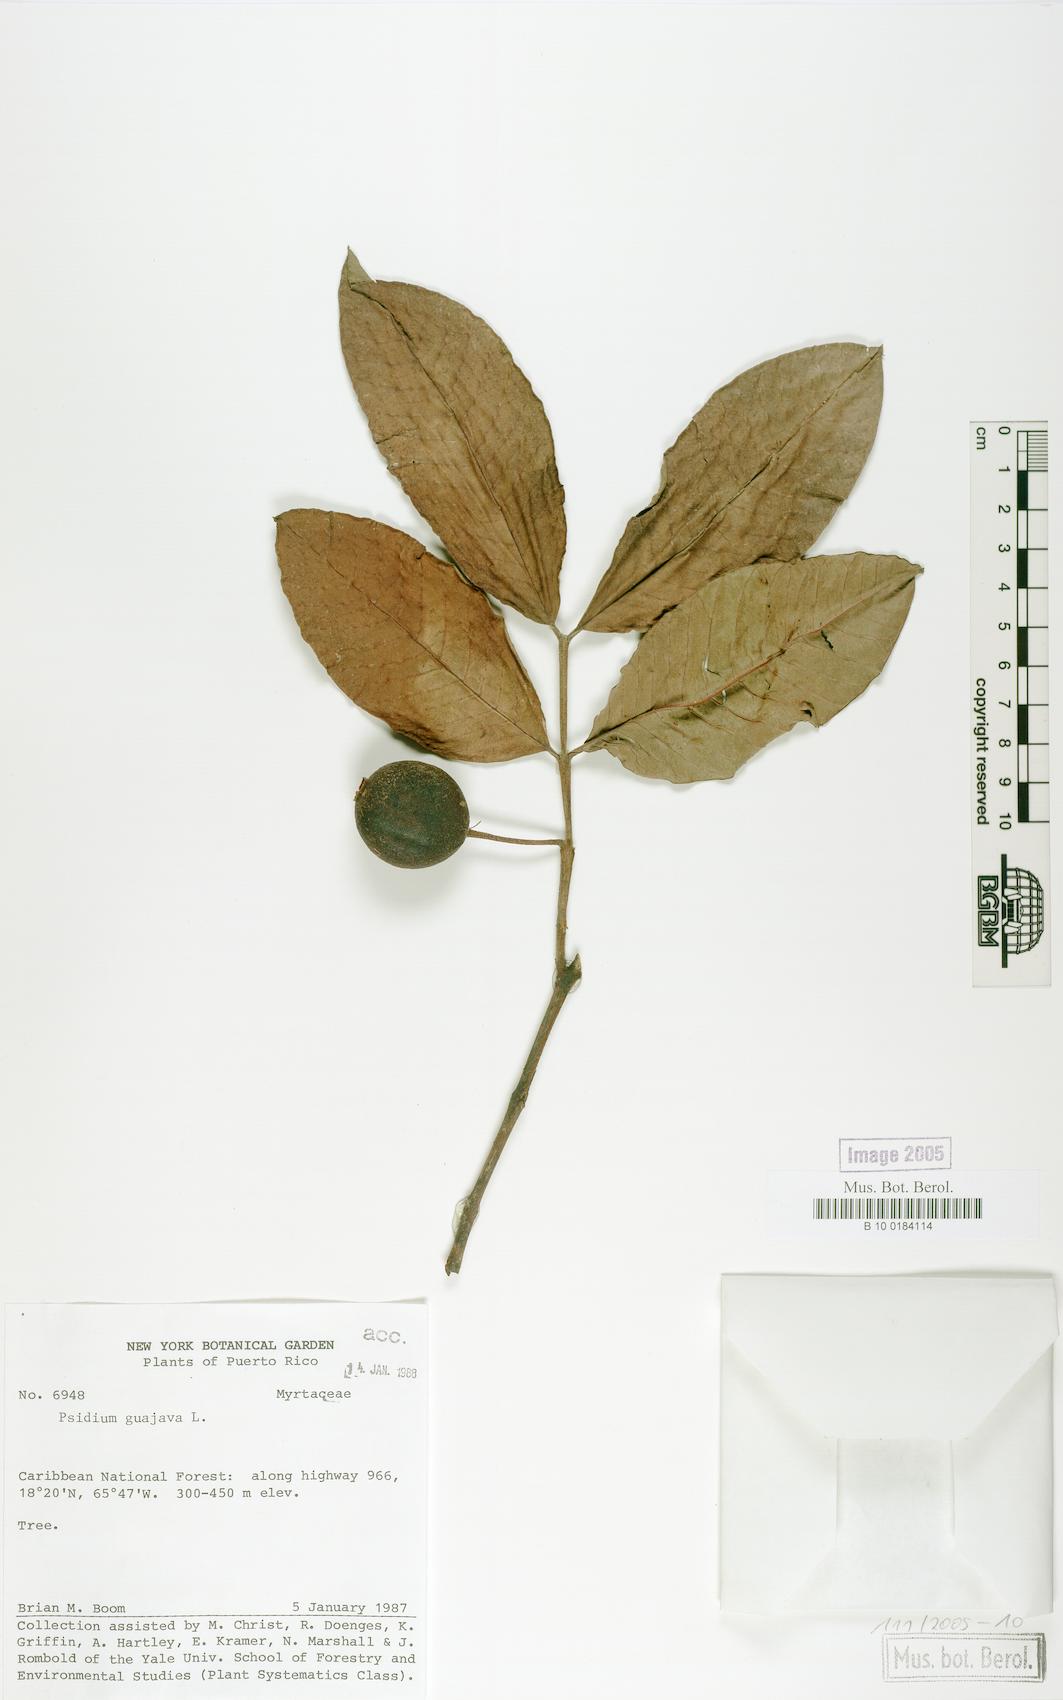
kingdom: Plantae
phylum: Tracheophyta
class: Magnoliopsida
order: Myrtales
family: Myrtaceae
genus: Psidium
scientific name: Psidium guajava
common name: Guava
